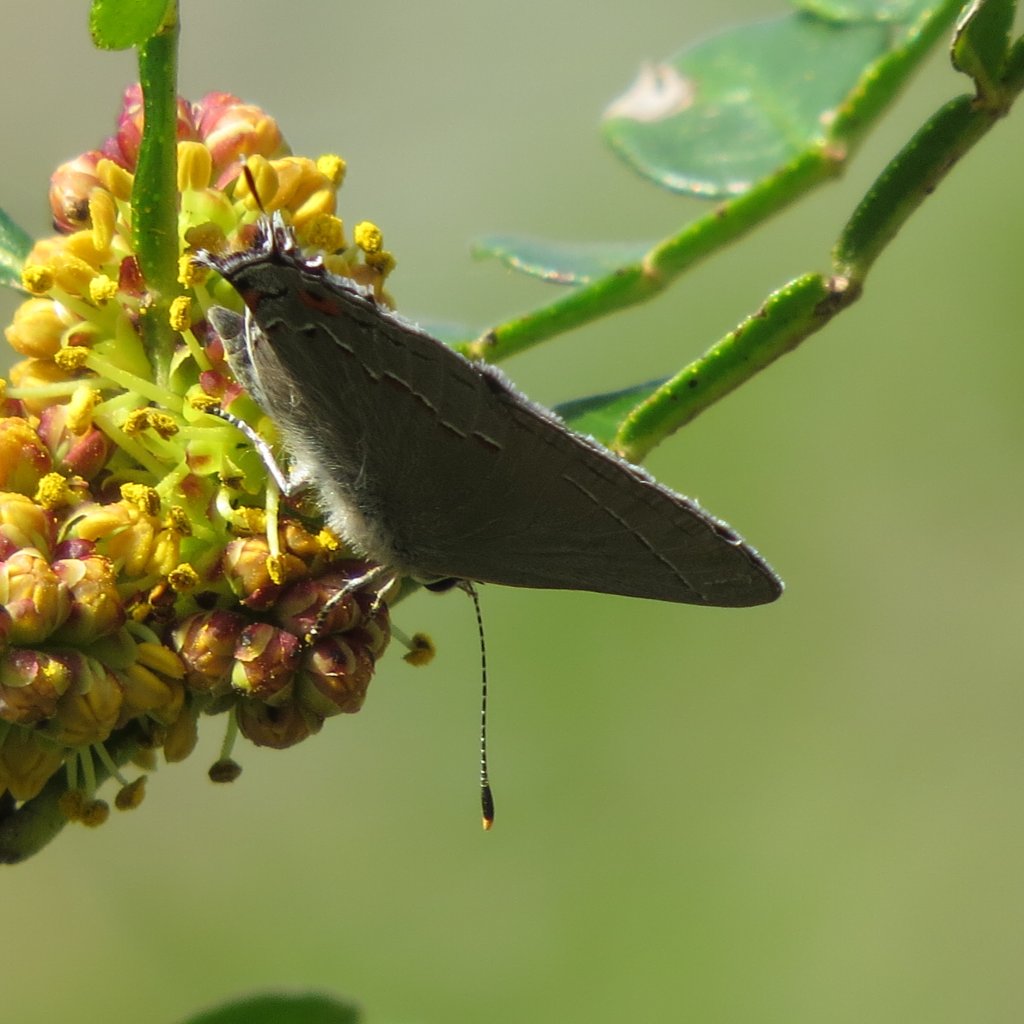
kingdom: Animalia
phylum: Arthropoda
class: Insecta
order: Lepidoptera
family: Lycaenidae
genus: Strymon
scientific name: Strymon melinus
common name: Gray Hairstreak
